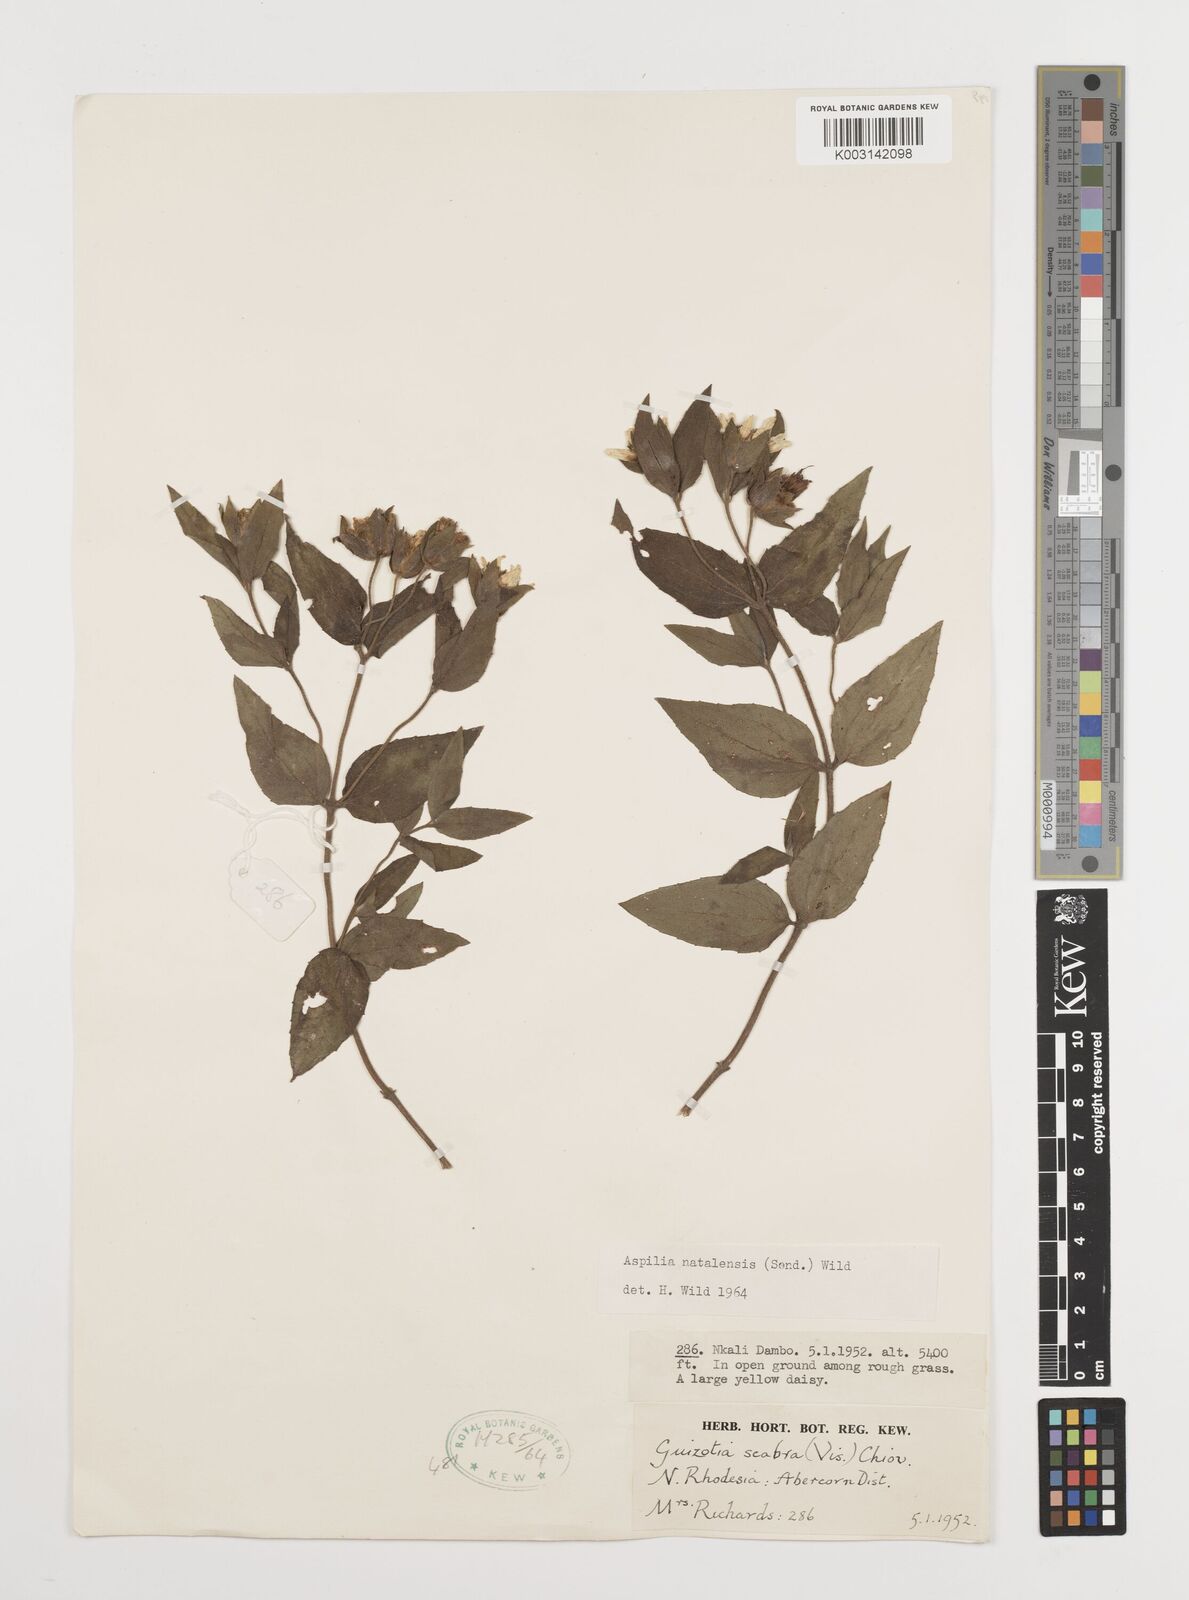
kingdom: Plantae
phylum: Tracheophyta
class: Magnoliopsida
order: Asterales
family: Asteraceae
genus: Aspilia
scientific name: Aspilia angolensis
